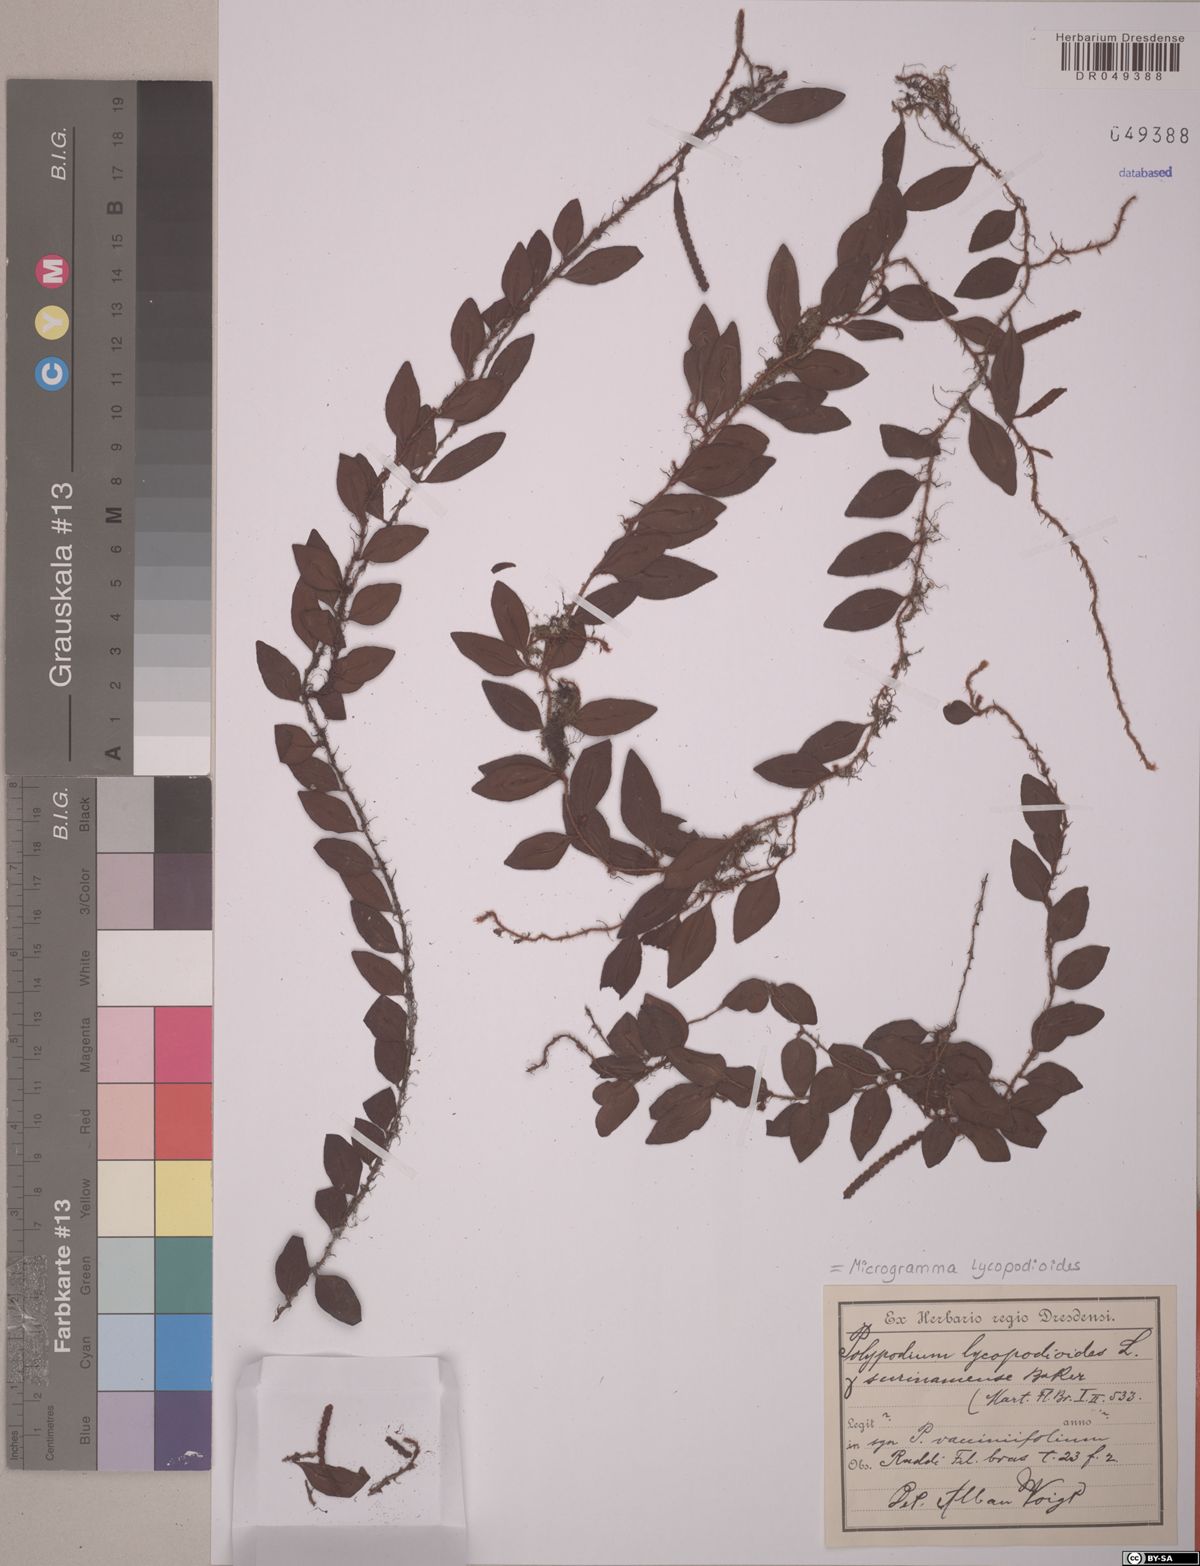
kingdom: Plantae
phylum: Tracheophyta
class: Polypodiopsida
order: Polypodiales
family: Polypodiaceae
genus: Microgramma
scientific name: Microgramma lycopodioides
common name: Bastard catclaw
